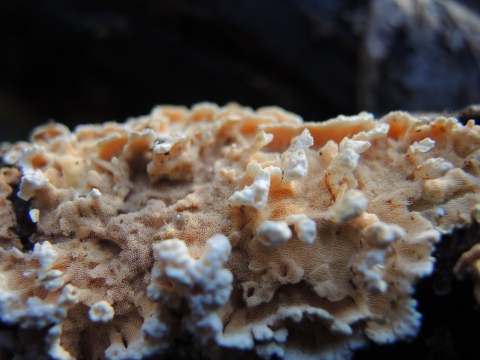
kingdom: Fungi
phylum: Basidiomycota
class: Agaricomycetes
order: Polyporales
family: Steccherinaceae
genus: Steccherinum
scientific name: Steccherinum ochraceum
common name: almindelig skønpig
